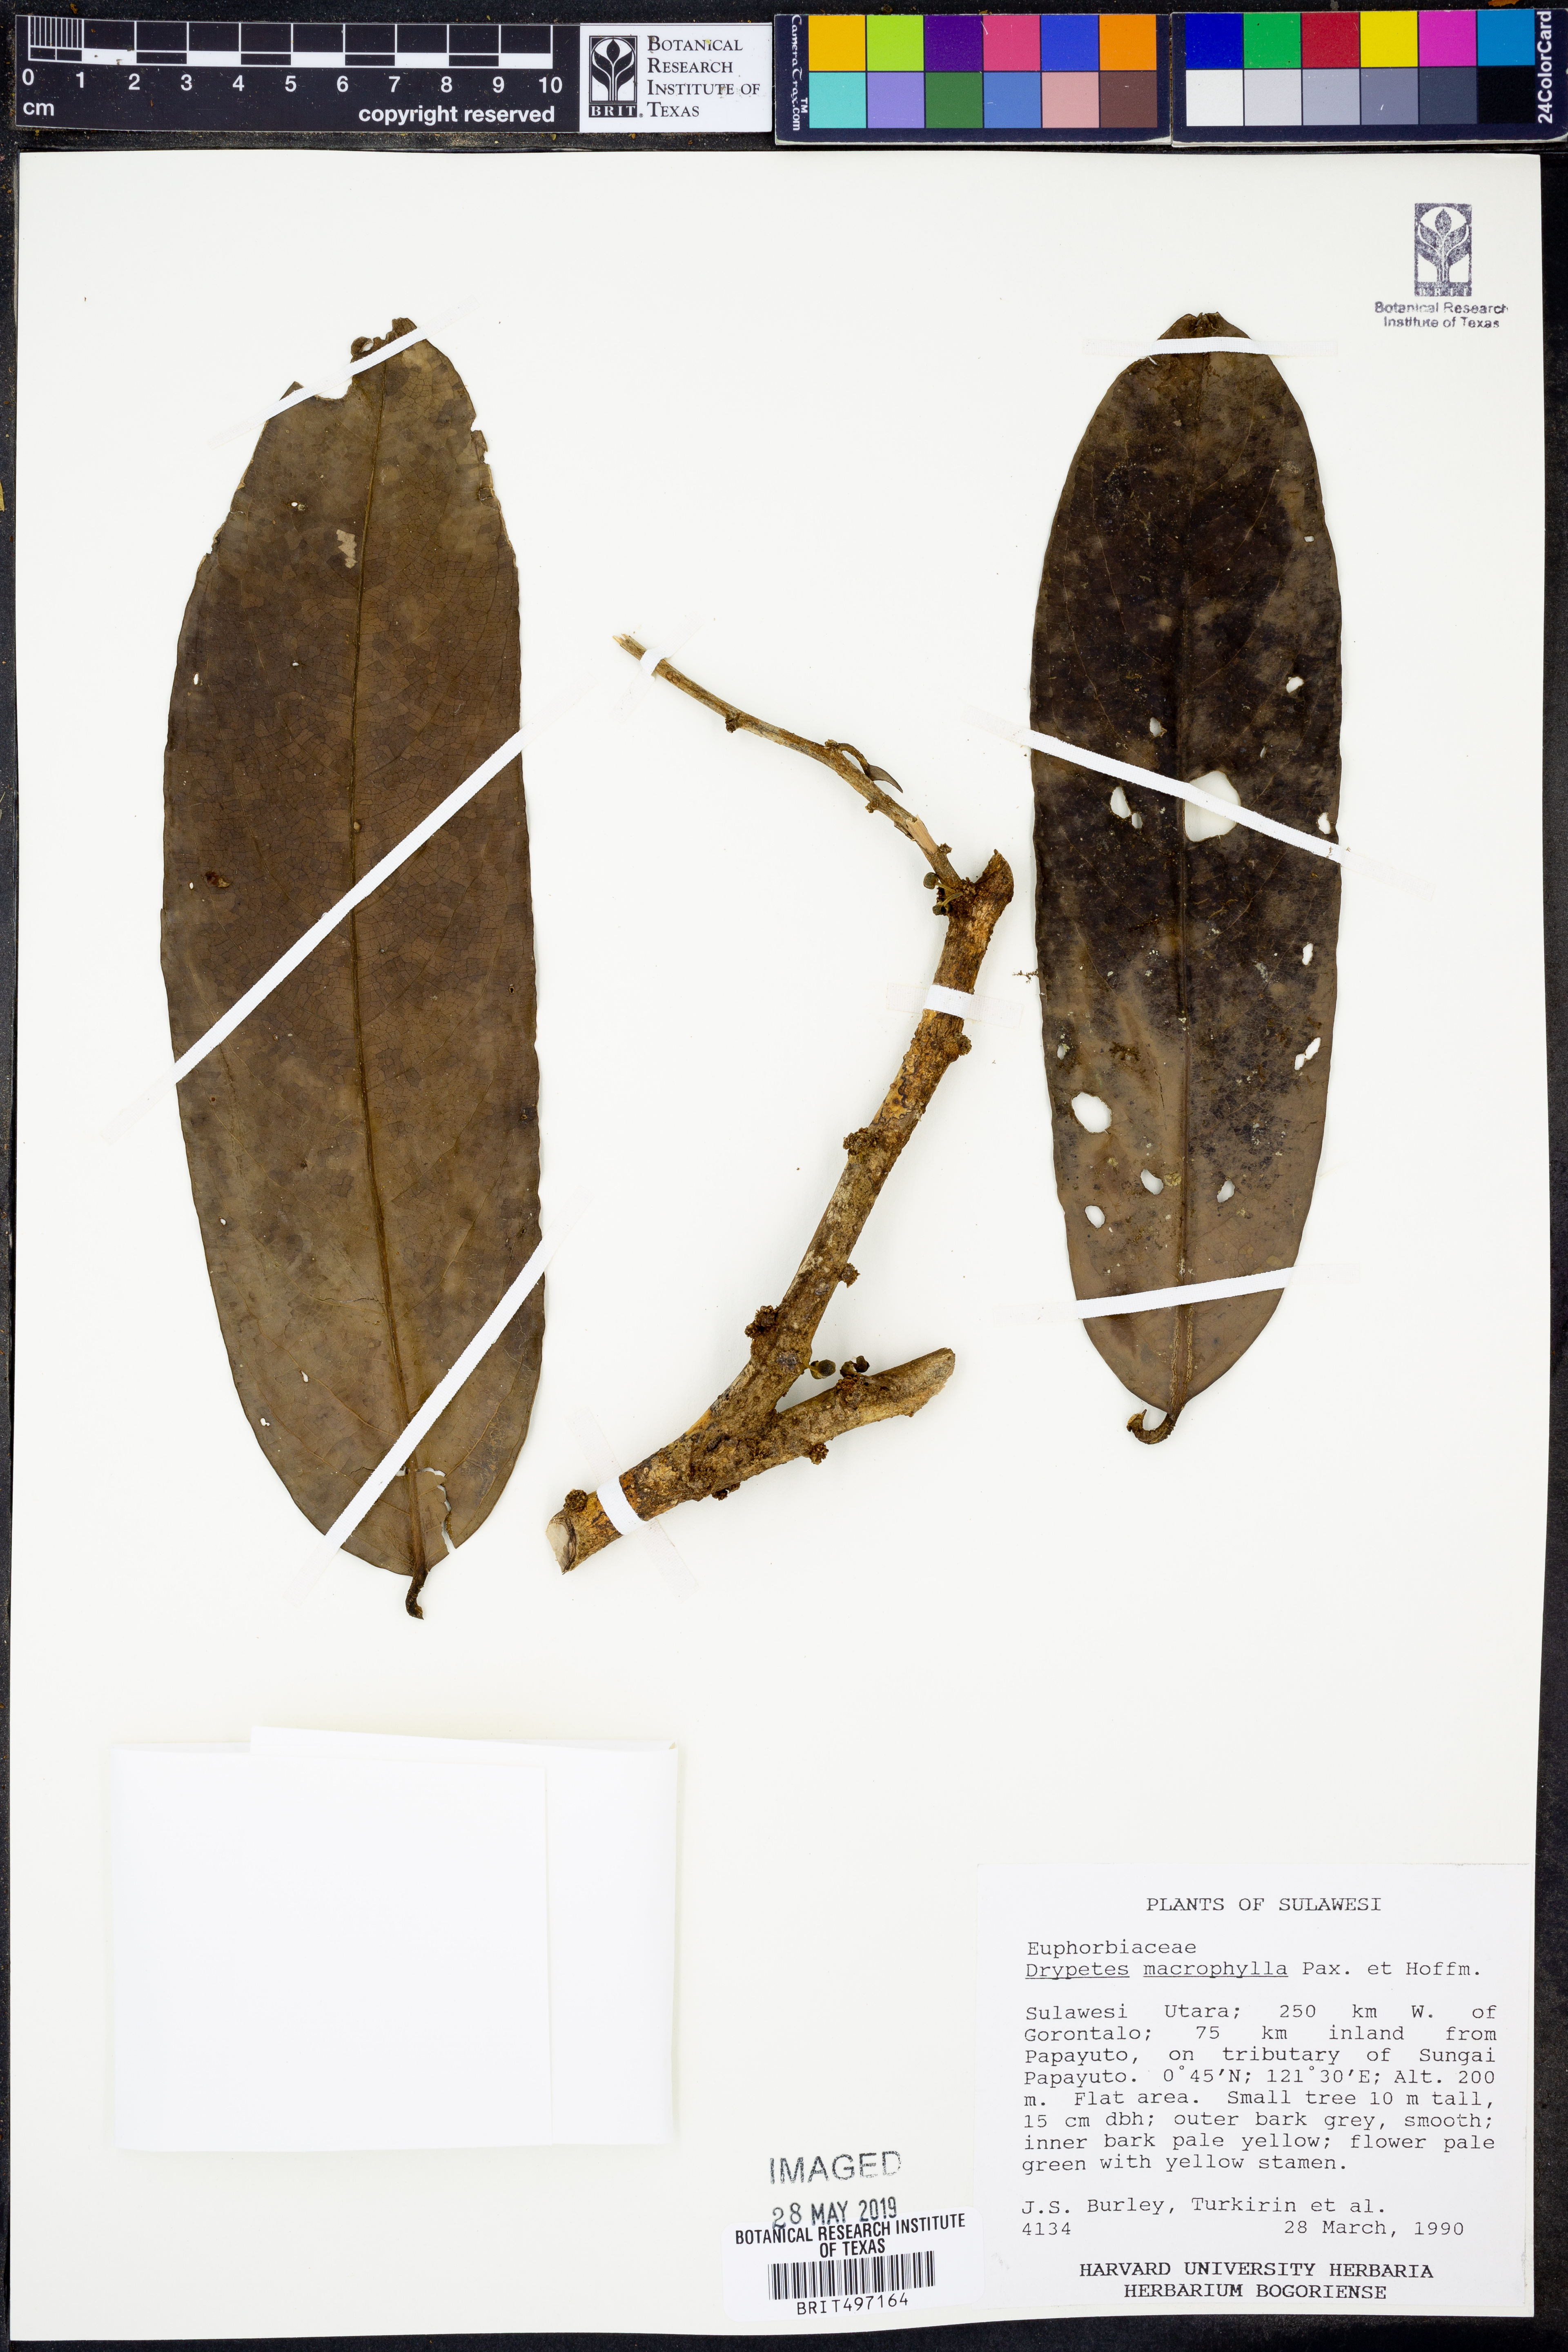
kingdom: Plantae
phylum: Tracheophyta
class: Magnoliopsida
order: Malpighiales
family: Putranjivaceae
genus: Drypetes
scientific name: Drypetes longifolia
